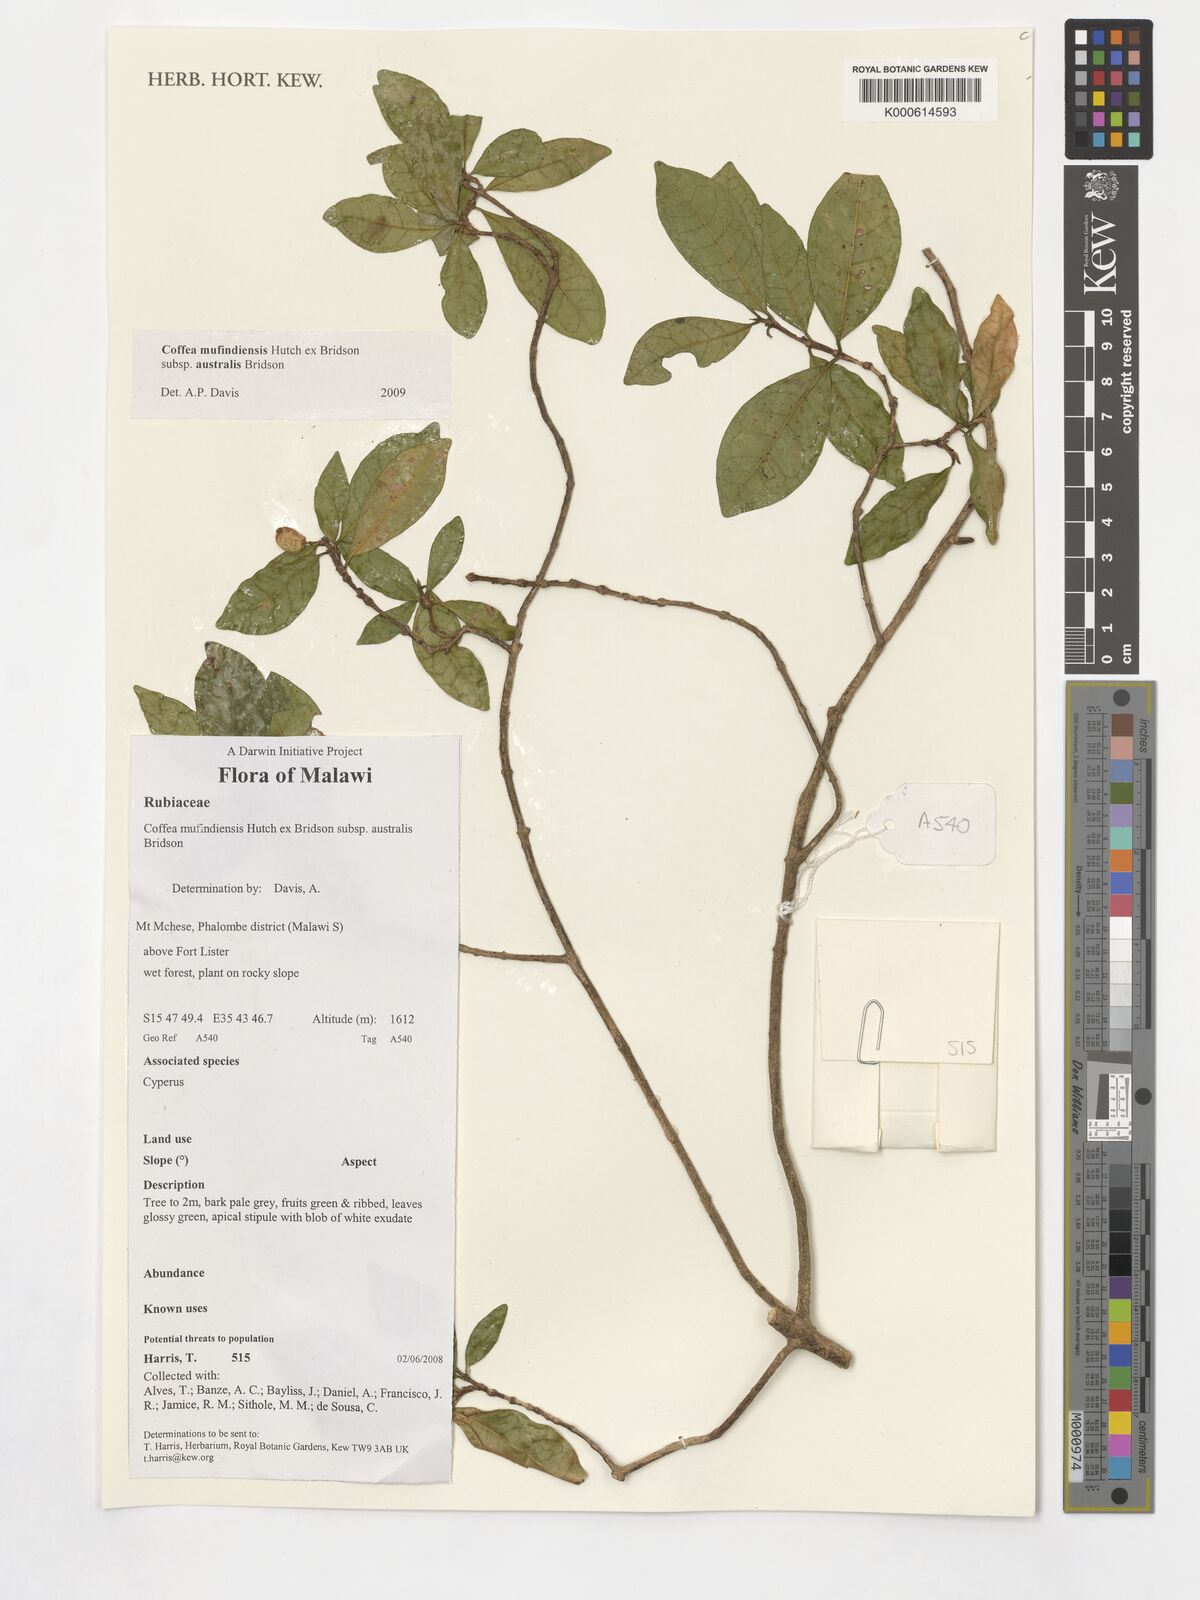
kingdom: Plantae
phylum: Tracheophyta
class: Magnoliopsida
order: Gentianales
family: Rubiaceae
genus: Coffea
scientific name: Coffea mufindiensis
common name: Wild coffee
